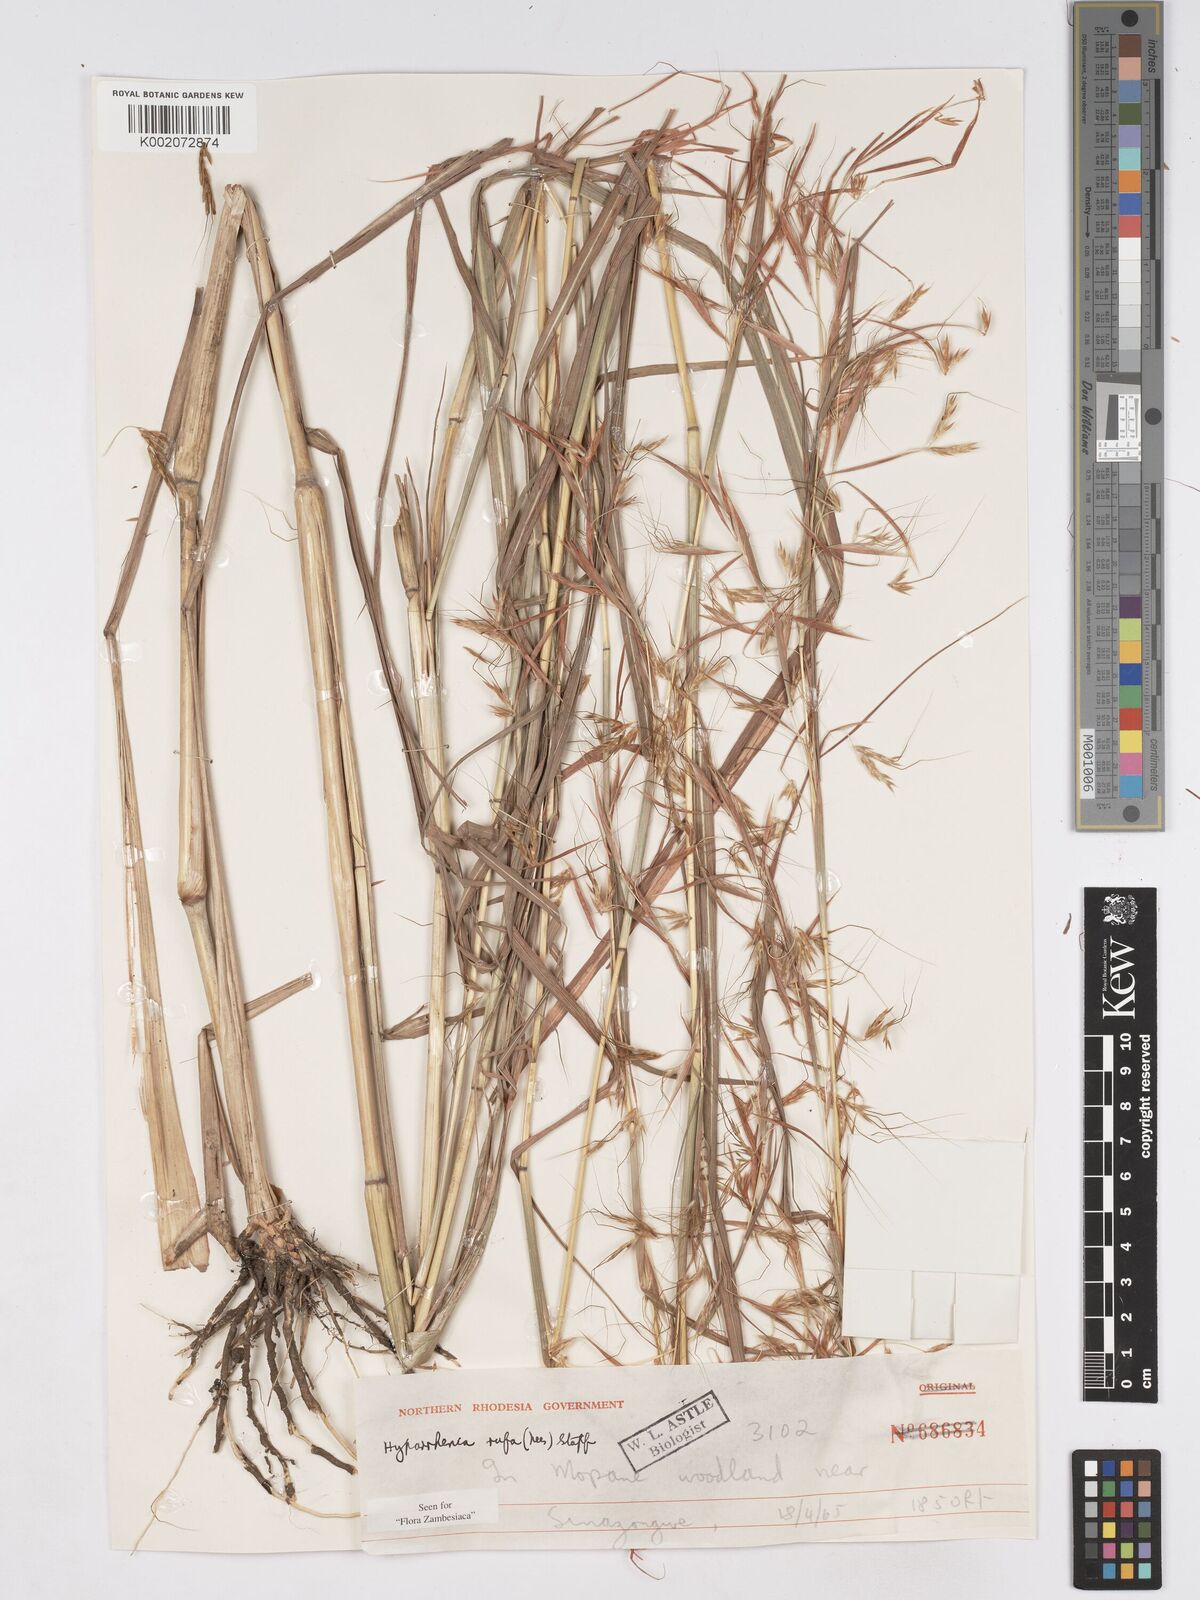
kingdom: Plantae
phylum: Tracheophyta
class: Liliopsida
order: Poales
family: Poaceae
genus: Hyparrhenia
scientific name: Hyparrhenia rufa
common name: Jaraguagrass
